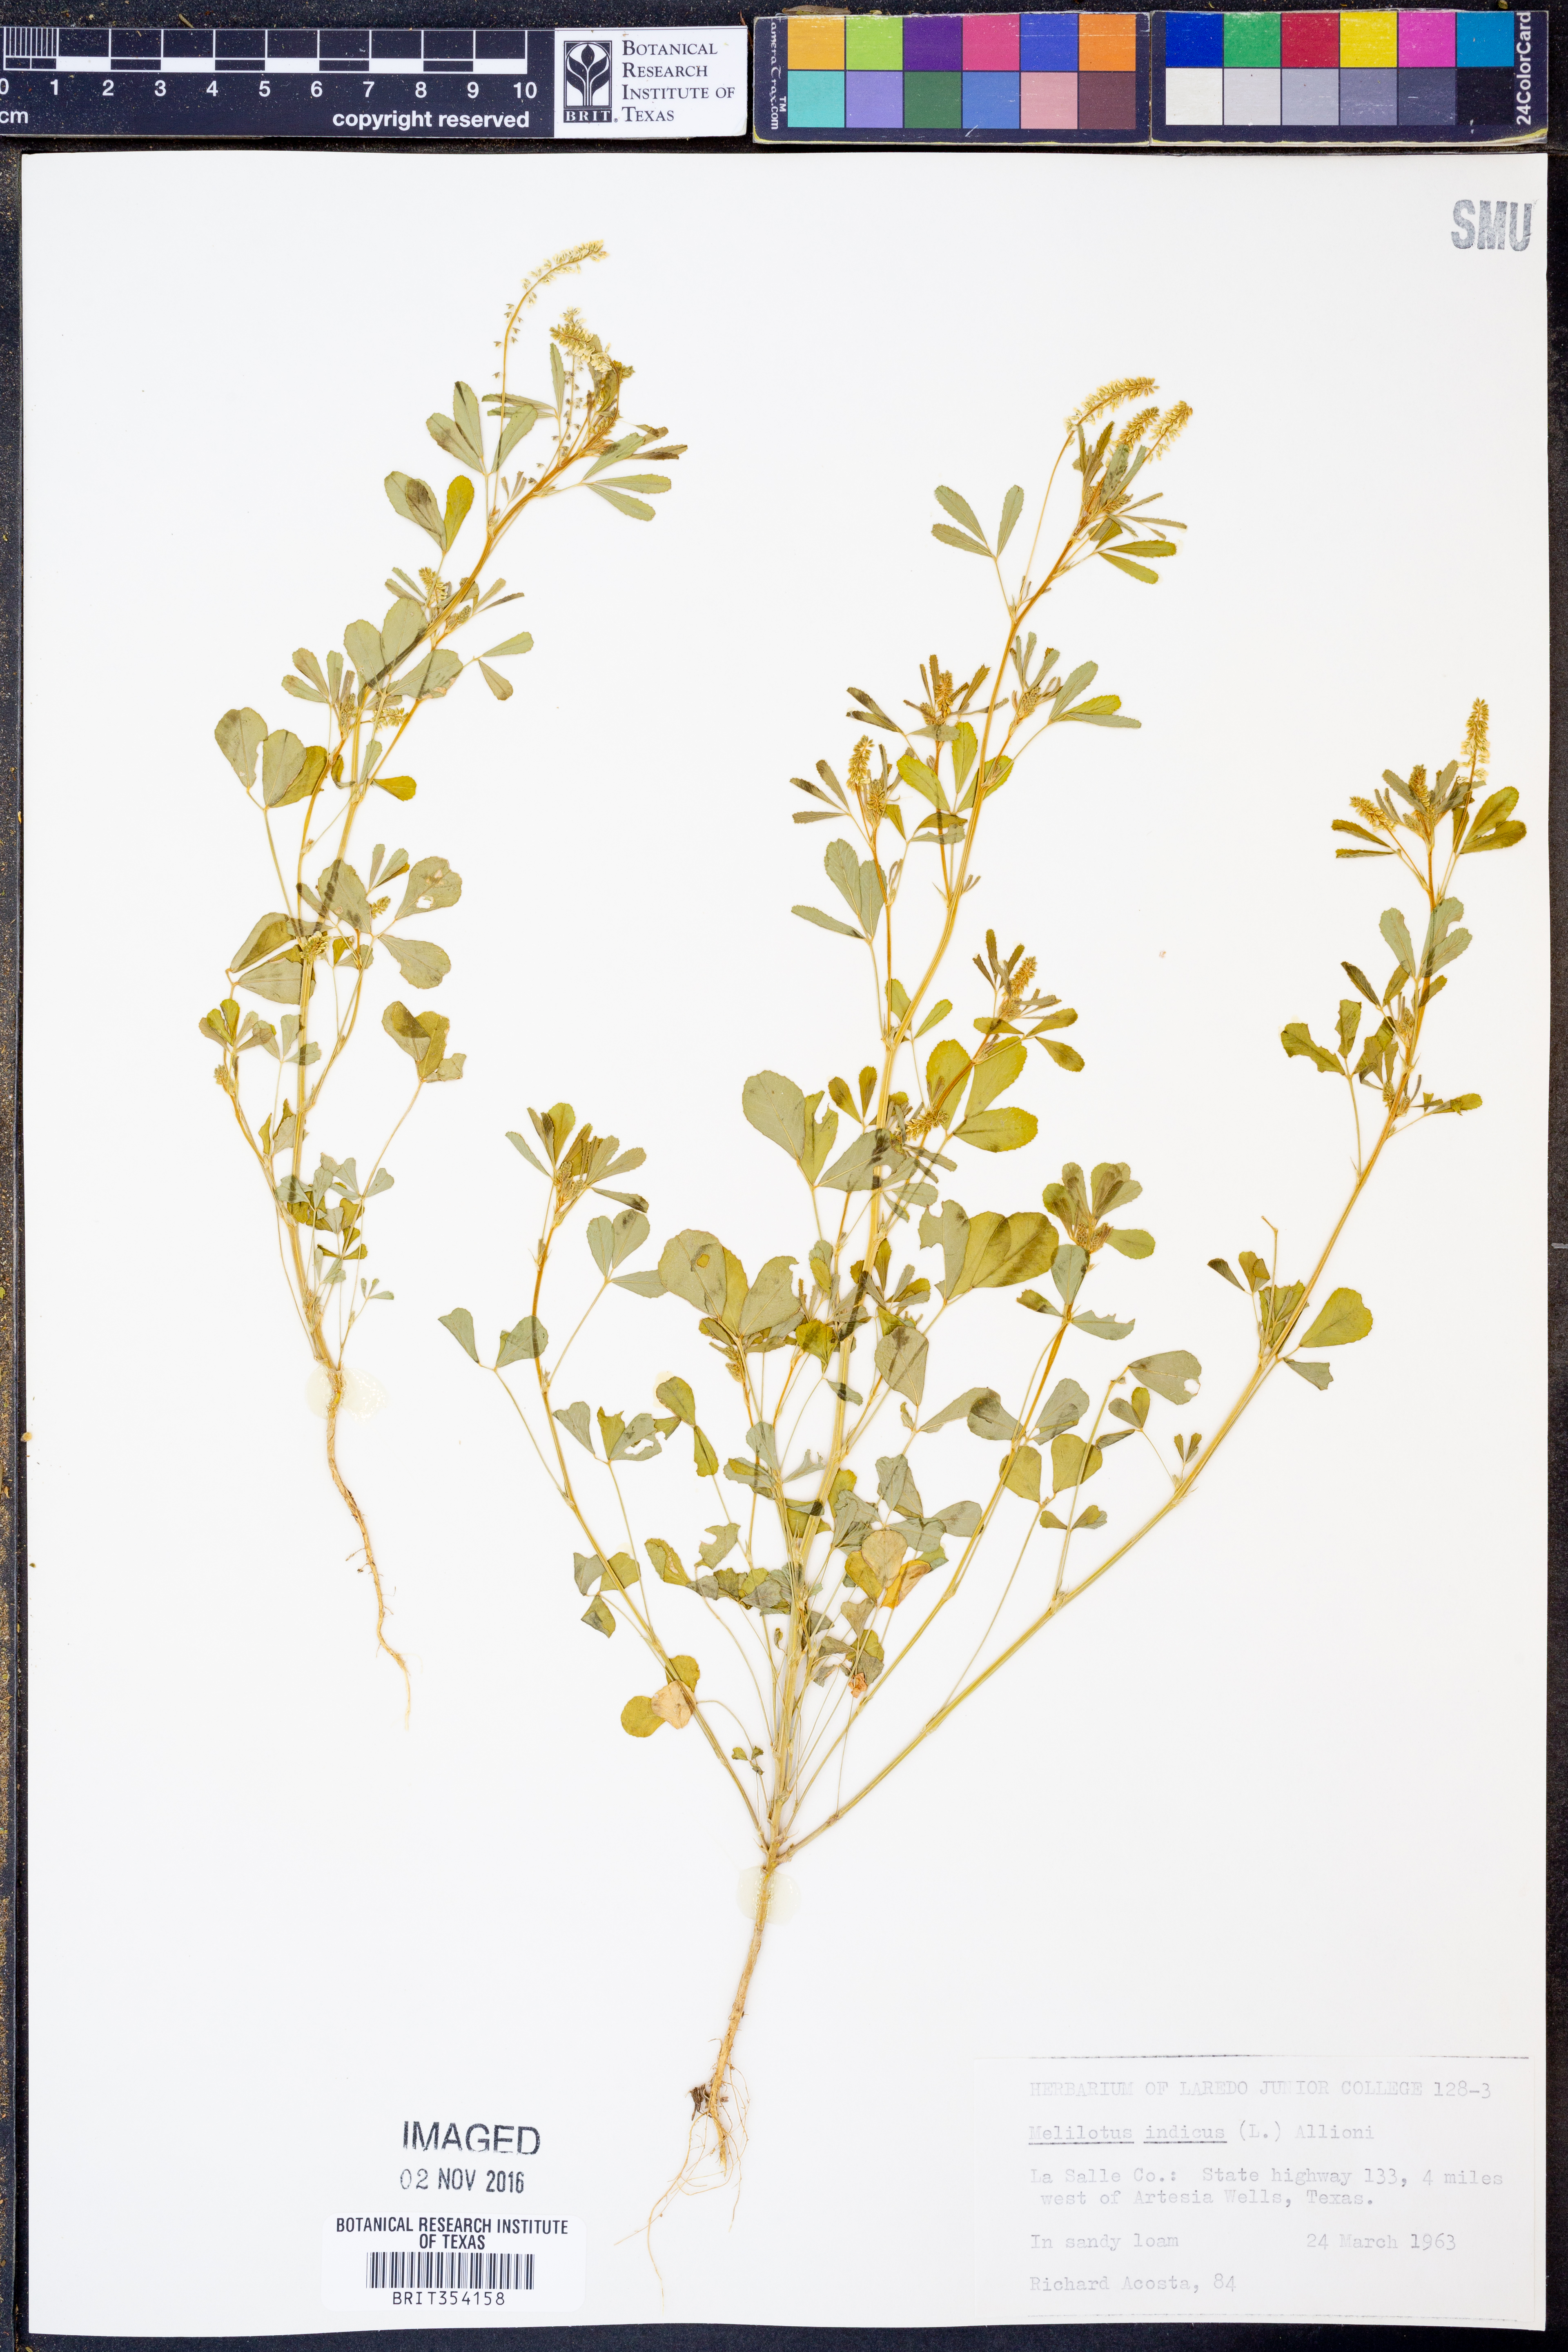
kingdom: Plantae
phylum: Tracheophyta
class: Magnoliopsida
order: Fabales
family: Fabaceae
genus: Melilotus
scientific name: Melilotus indicus
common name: Small melilot
